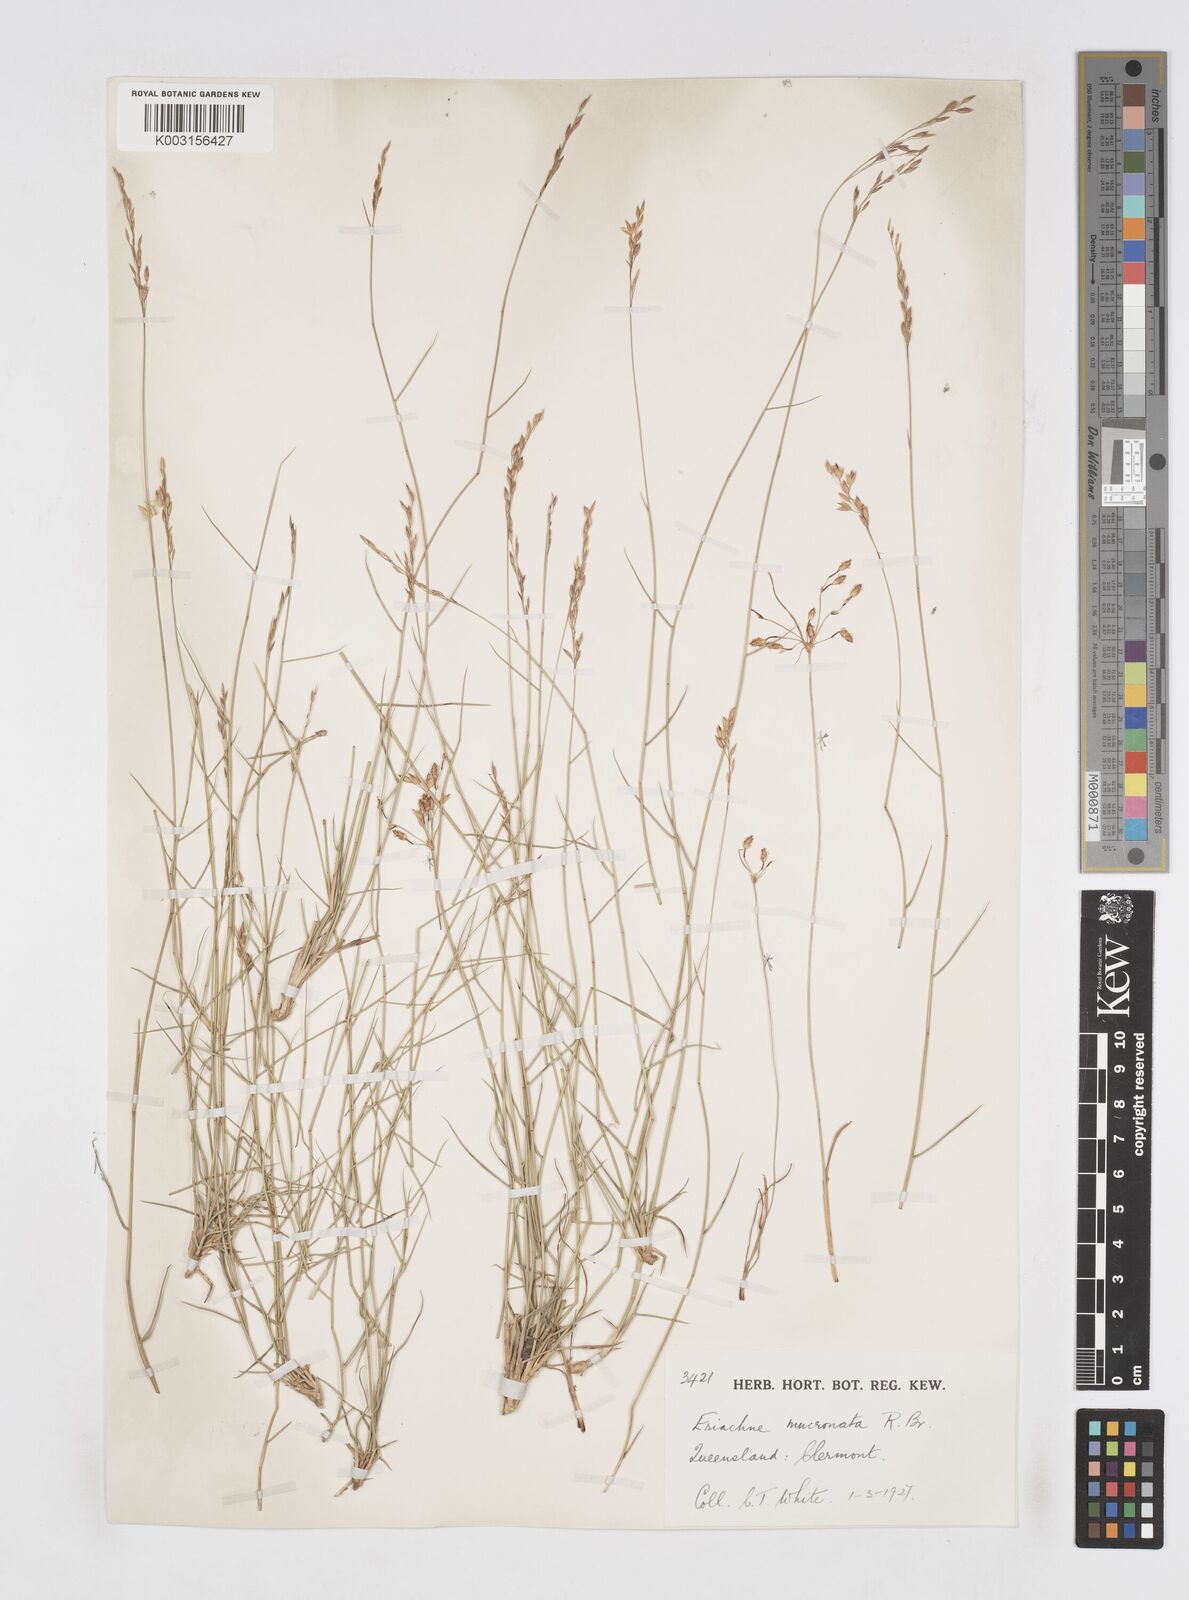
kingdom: Plantae
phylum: Tracheophyta
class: Liliopsida
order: Poales
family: Poaceae
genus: Eriachne
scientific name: Eriachne mucronata
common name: Mountain wanderrie grass
